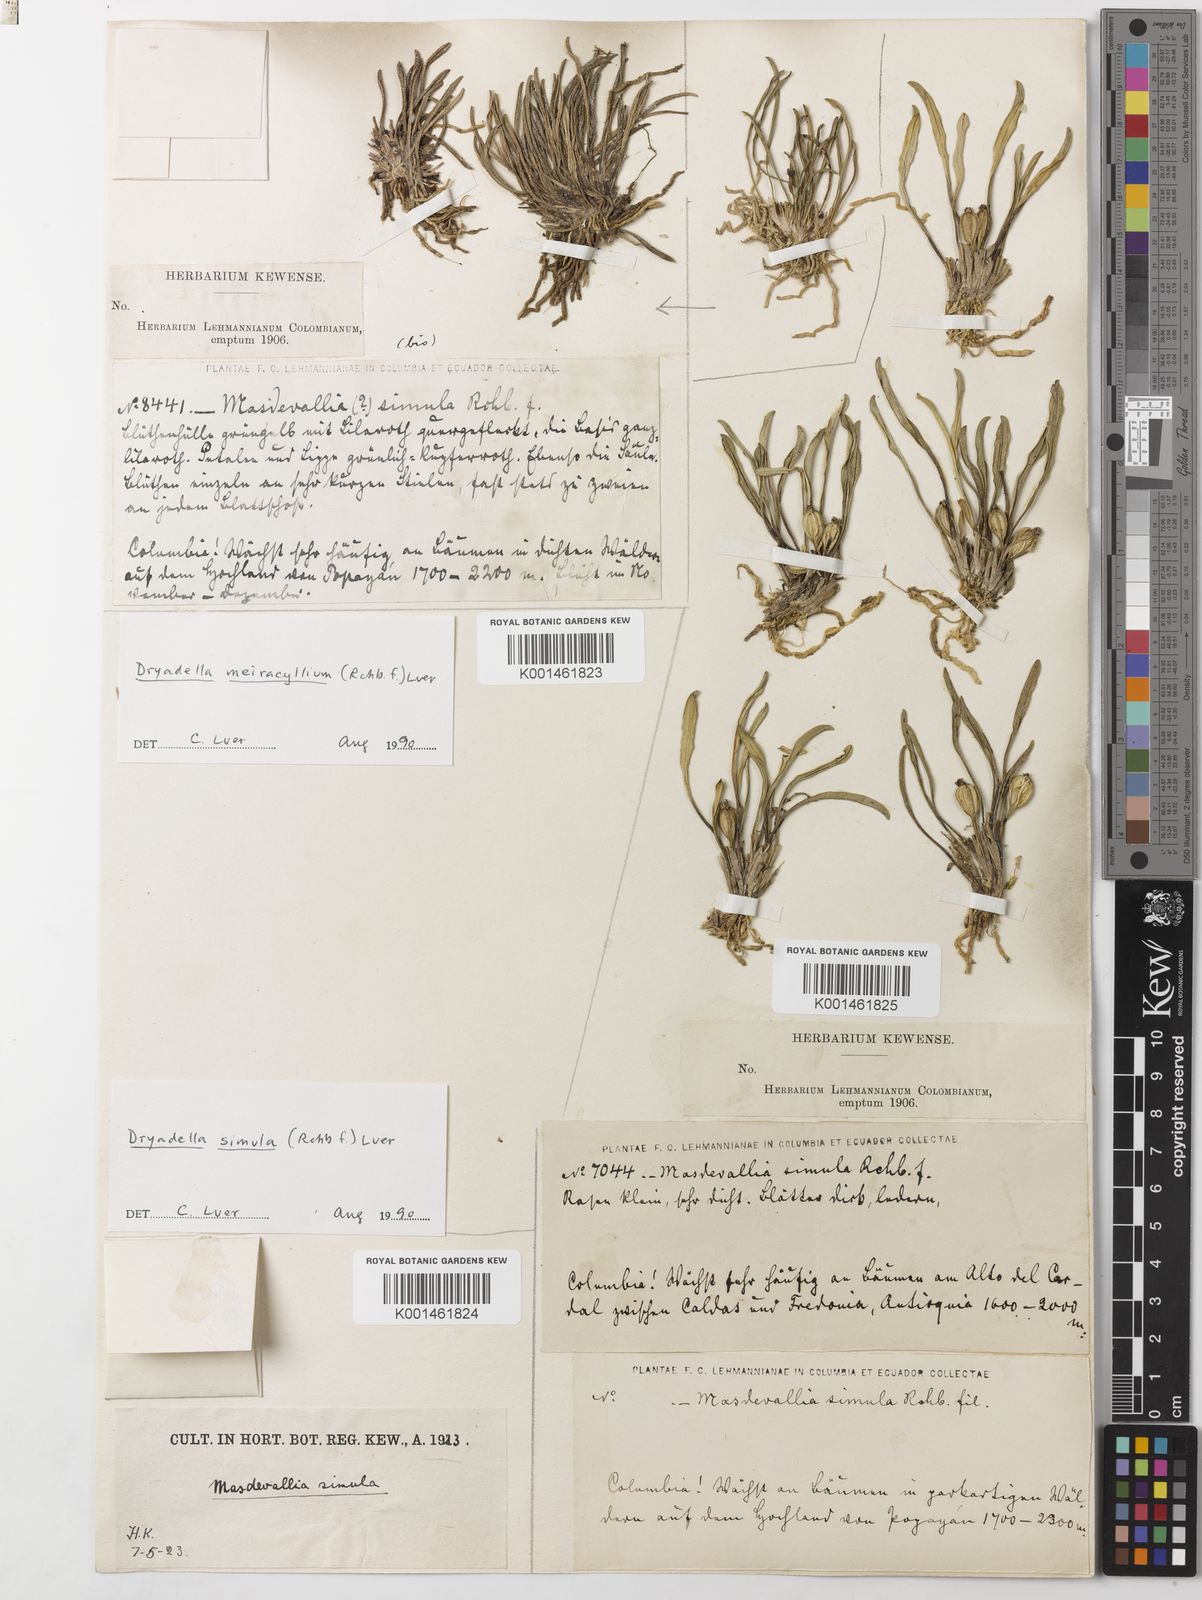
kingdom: Plantae
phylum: Tracheophyta
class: Liliopsida
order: Asparagales
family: Orchidaceae
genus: Dryadella
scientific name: Dryadella meiracyllium
